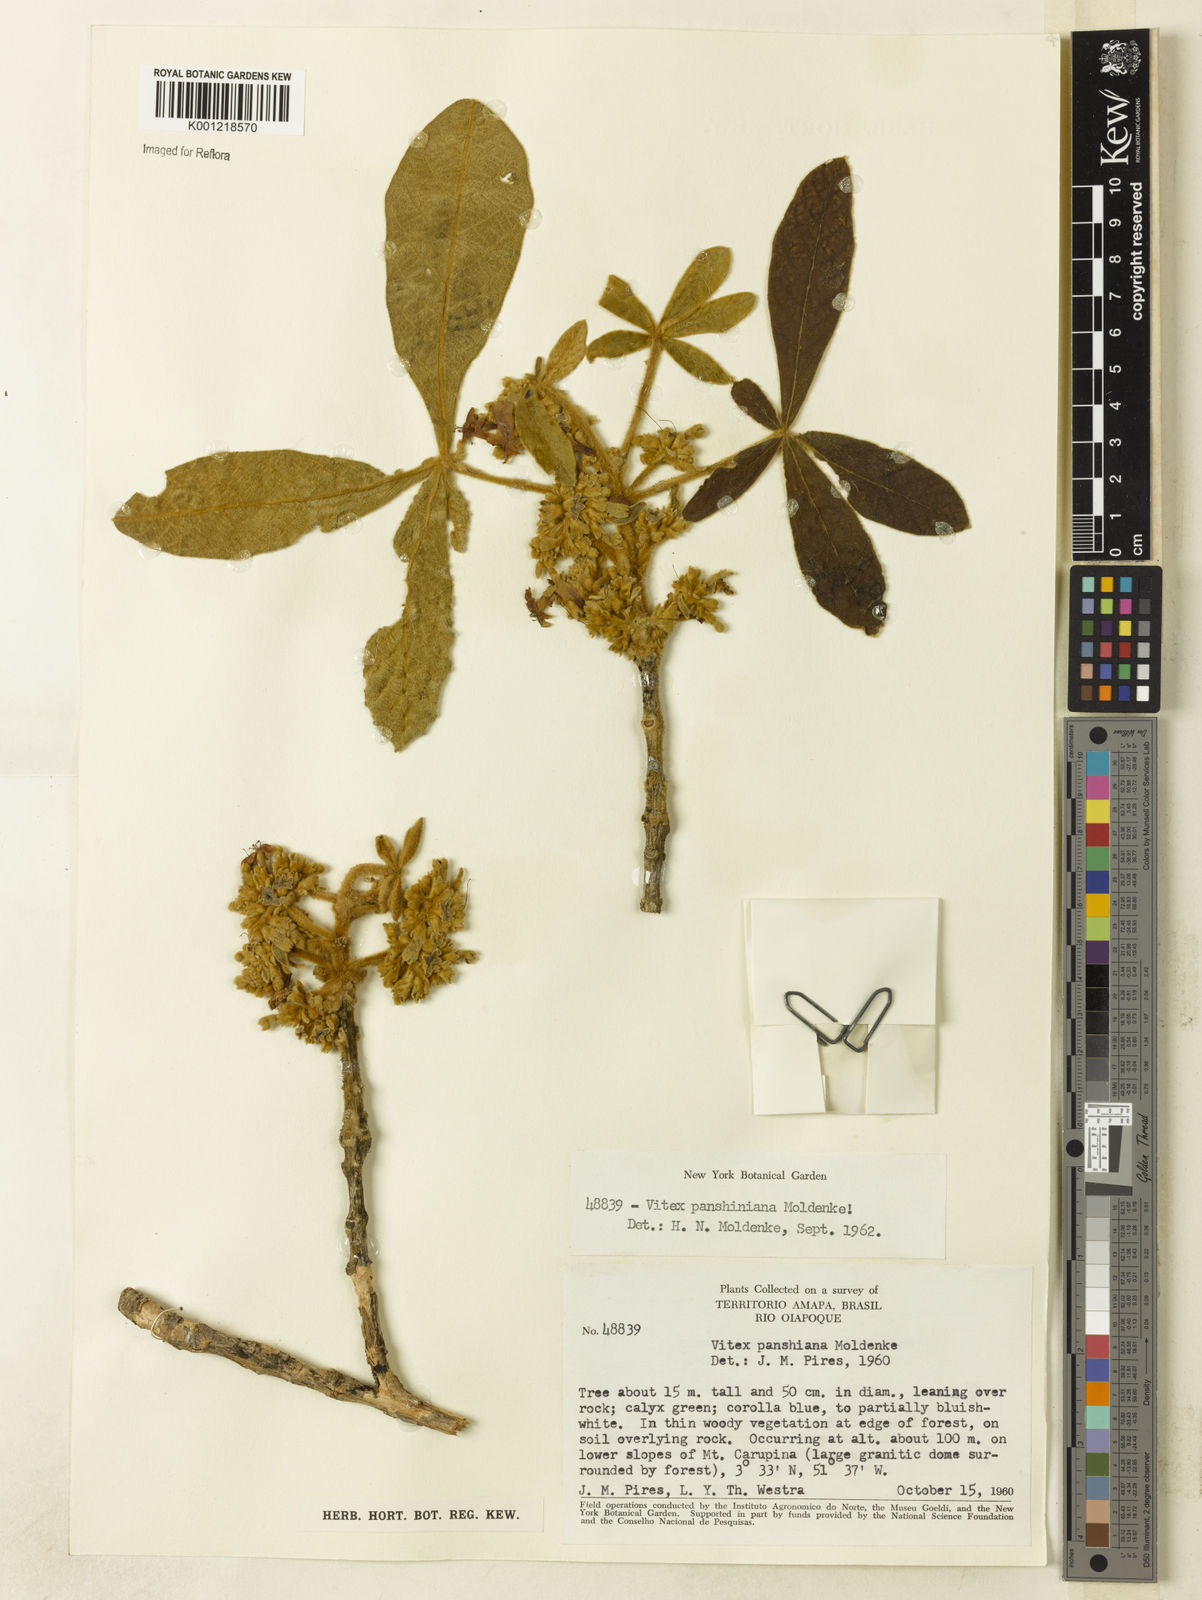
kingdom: Plantae
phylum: Tracheophyta
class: Magnoliopsida
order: Lamiales
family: Lamiaceae
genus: Vitex
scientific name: Vitex panshiniana
